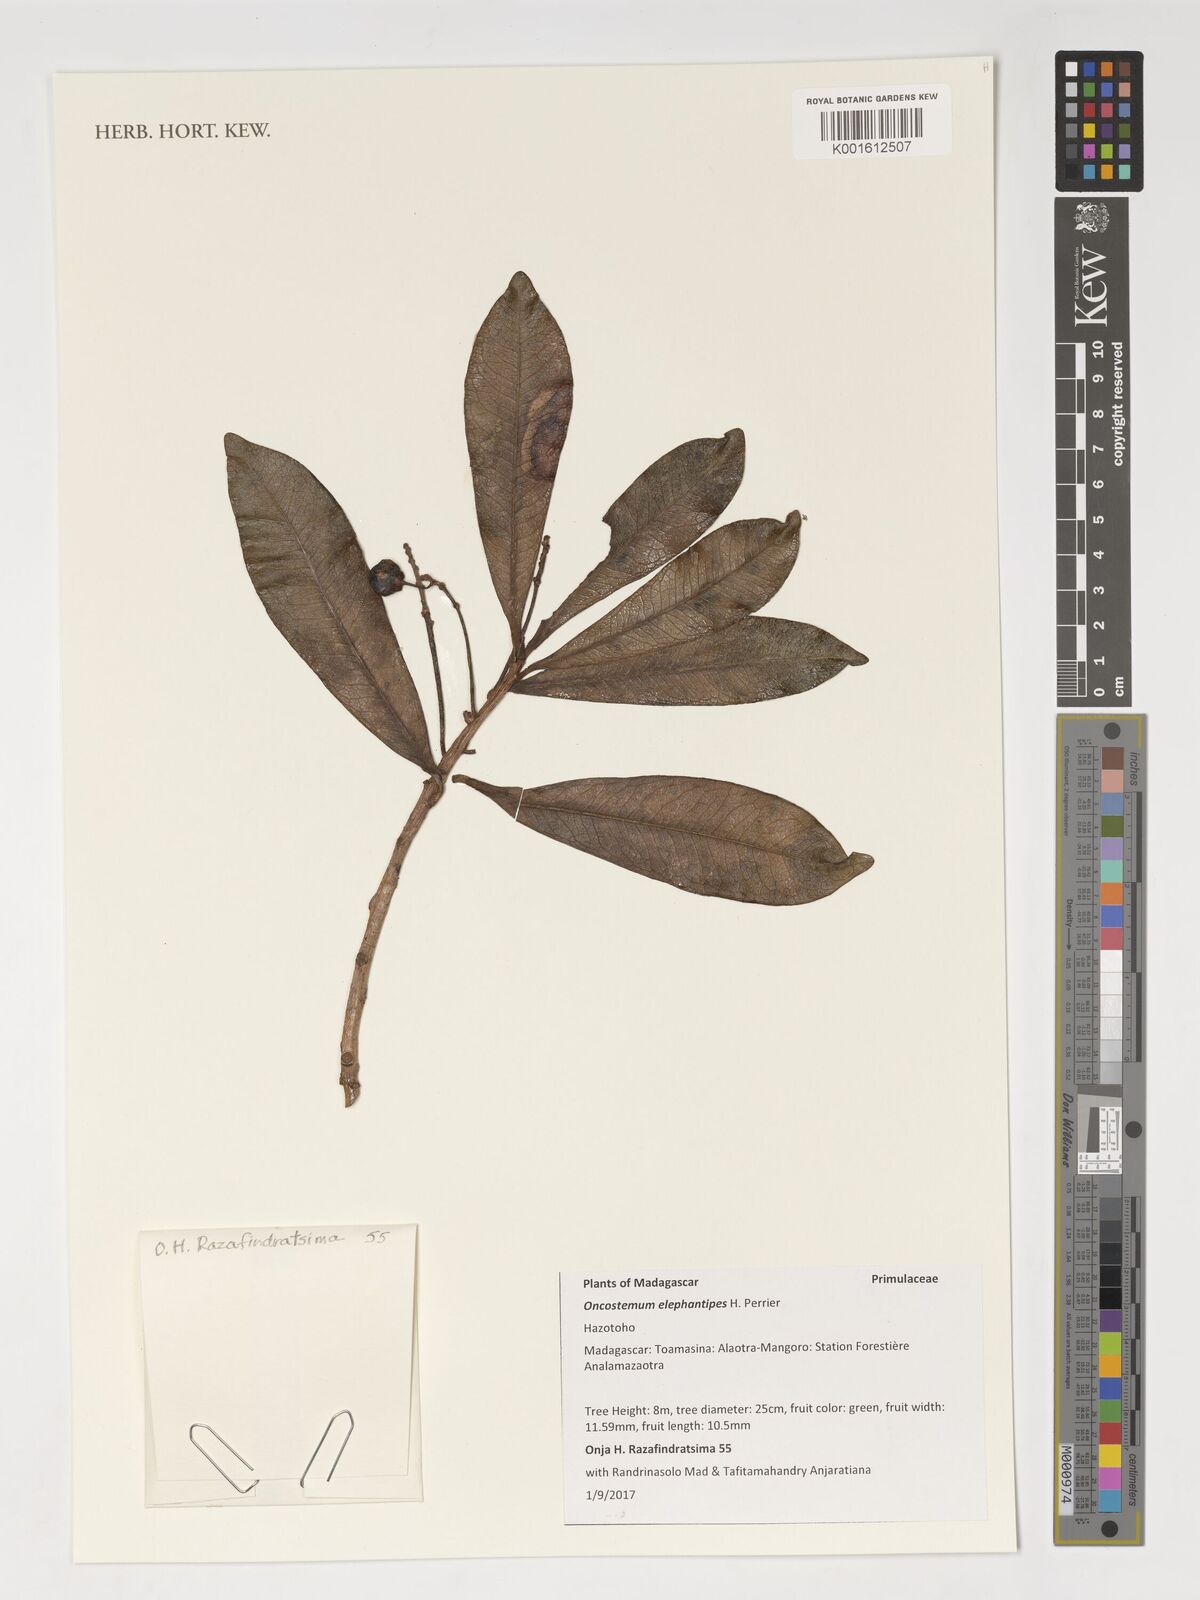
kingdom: Plantae
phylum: Tracheophyta
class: Magnoliopsida
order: Ericales
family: Primulaceae
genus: Oncostemum
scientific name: Oncostemum elephantipes
